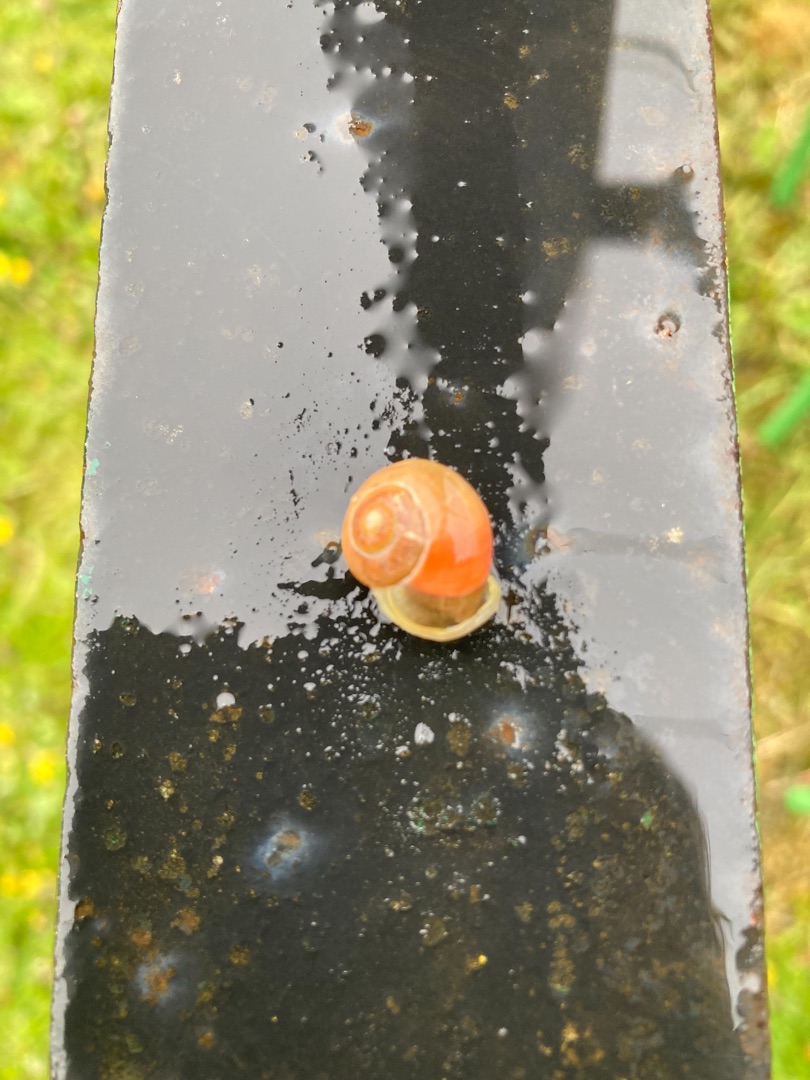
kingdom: Animalia
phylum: Mollusca
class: Gastropoda
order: Stylommatophora
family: Helicidae
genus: Cepaea
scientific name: Cepaea hortensis
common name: Havesnegl
